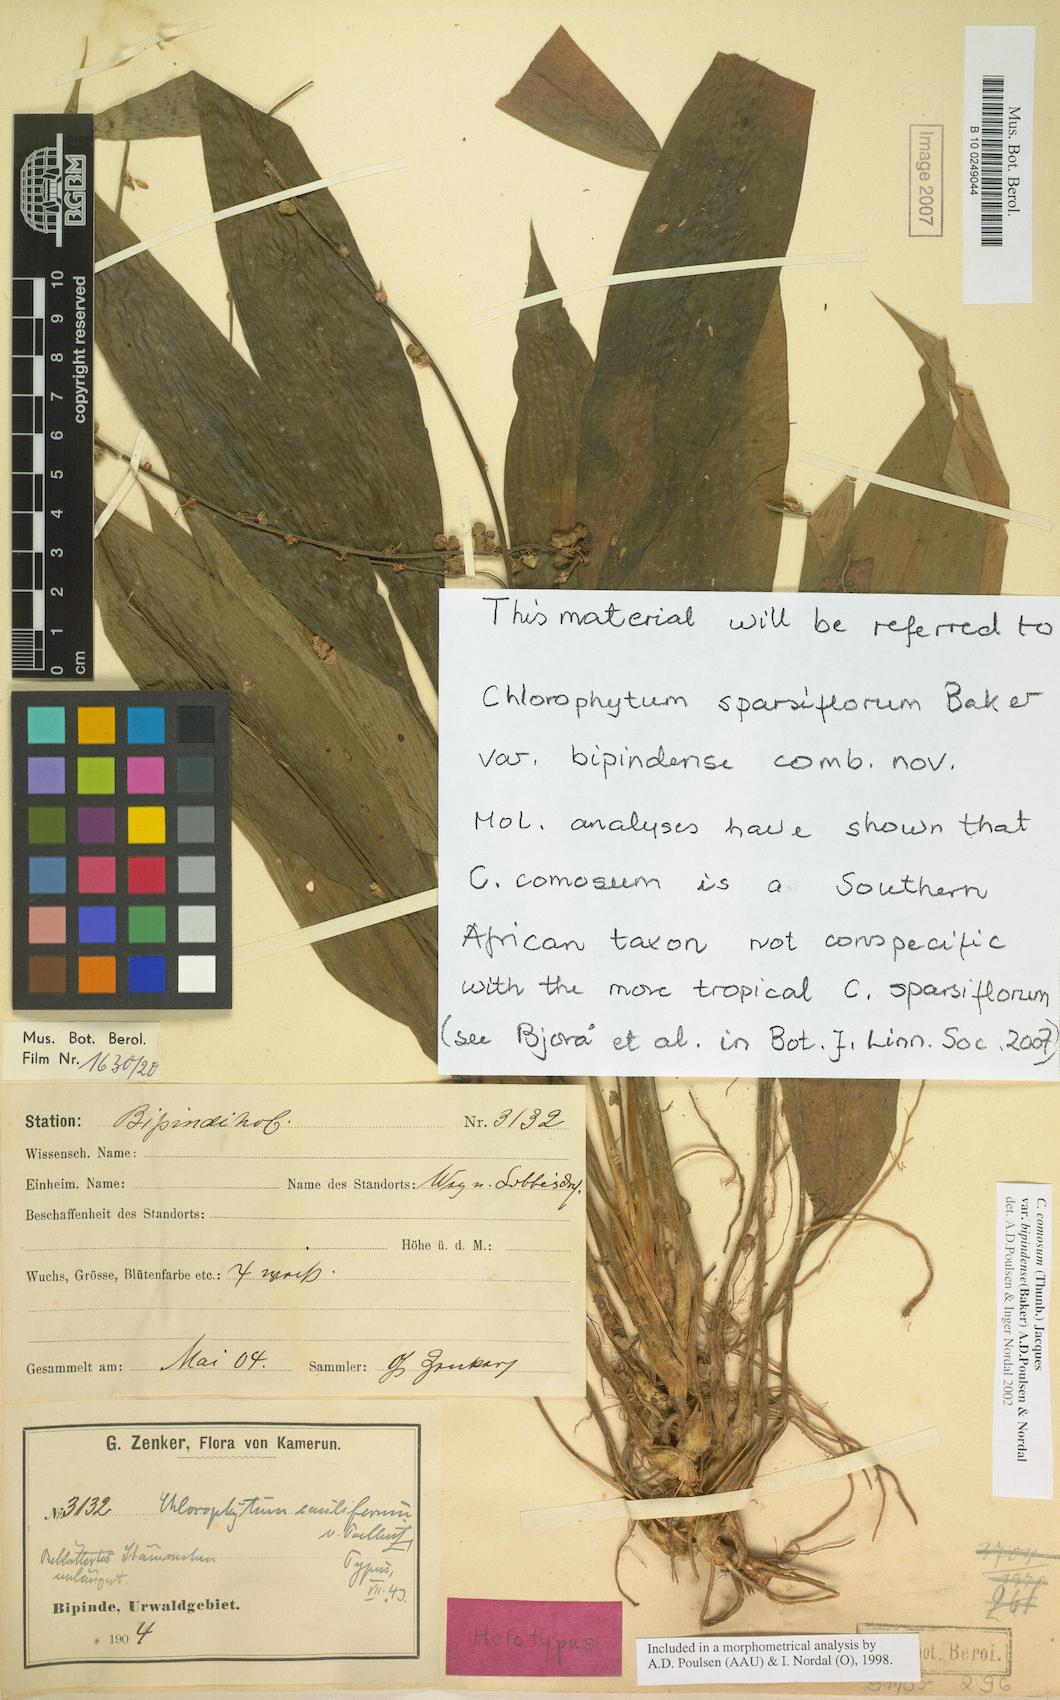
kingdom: Plantae
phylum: Tracheophyta
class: Liliopsida
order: Asparagales
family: Asparagaceae
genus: Chlorophytum
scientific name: Chlorophytum sparsiflorum
